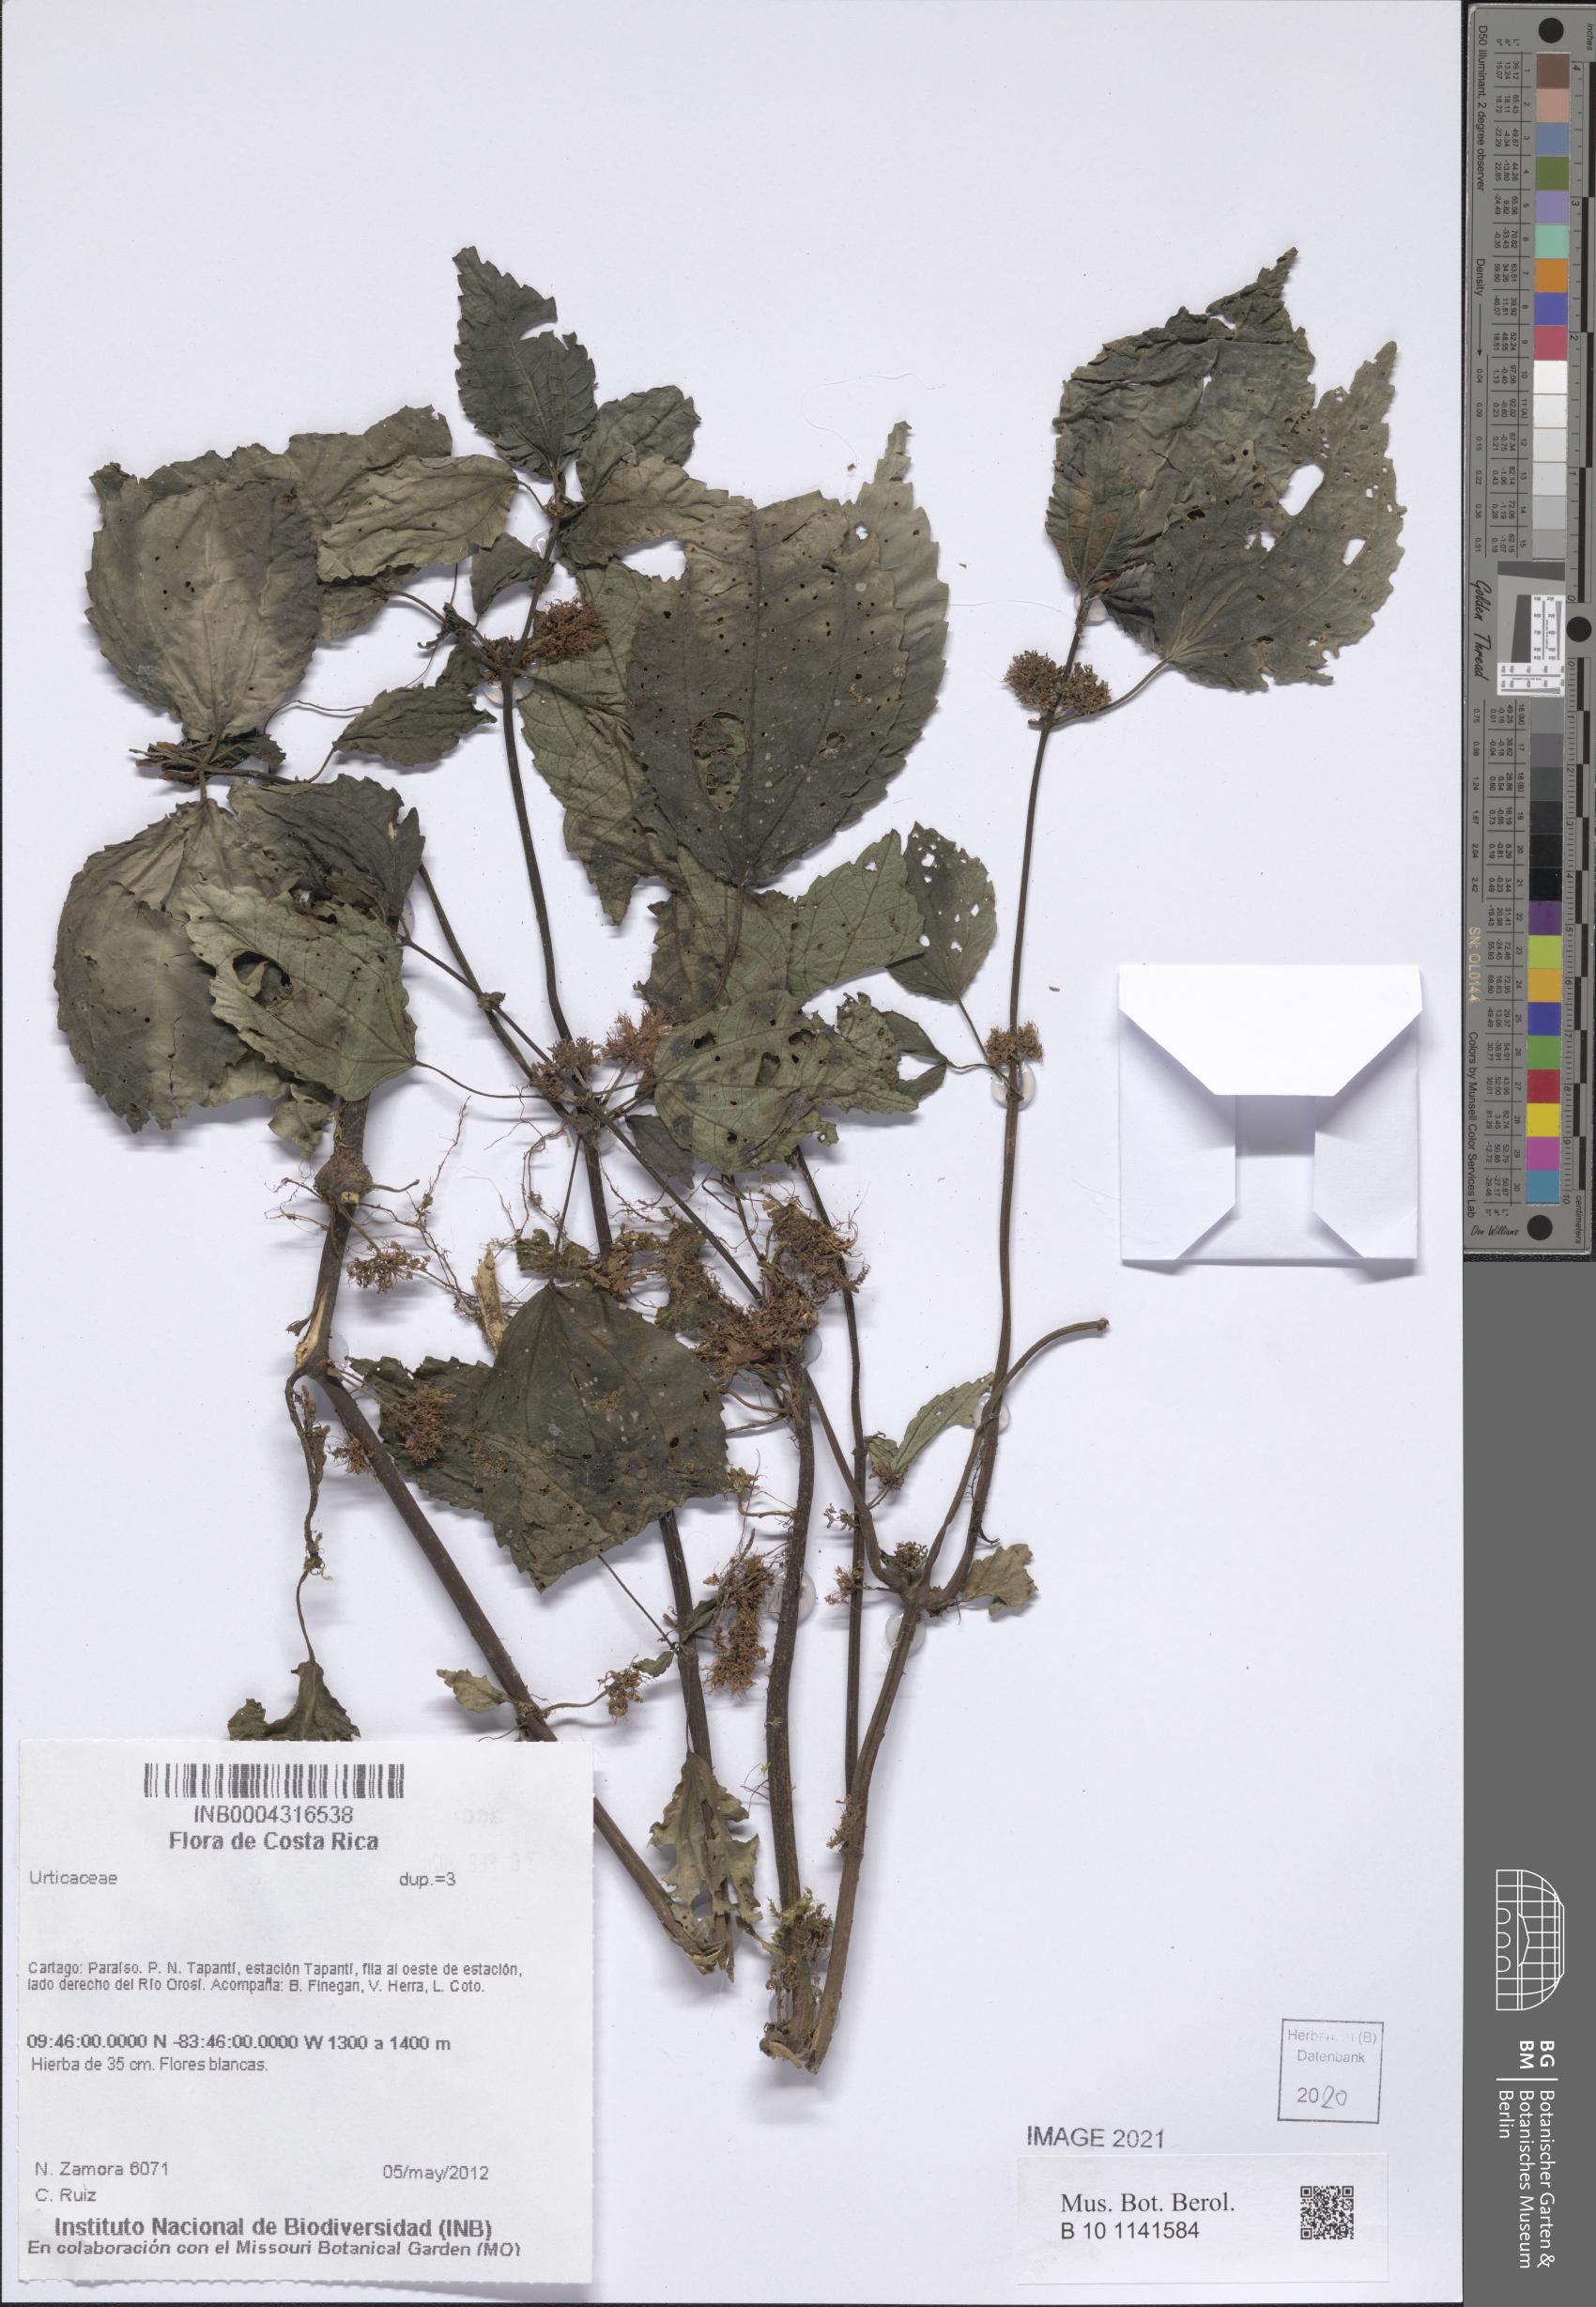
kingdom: Plantae
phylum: Tracheophyta
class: Magnoliopsida
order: Rosales
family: Urticaceae
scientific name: Urticaceae
